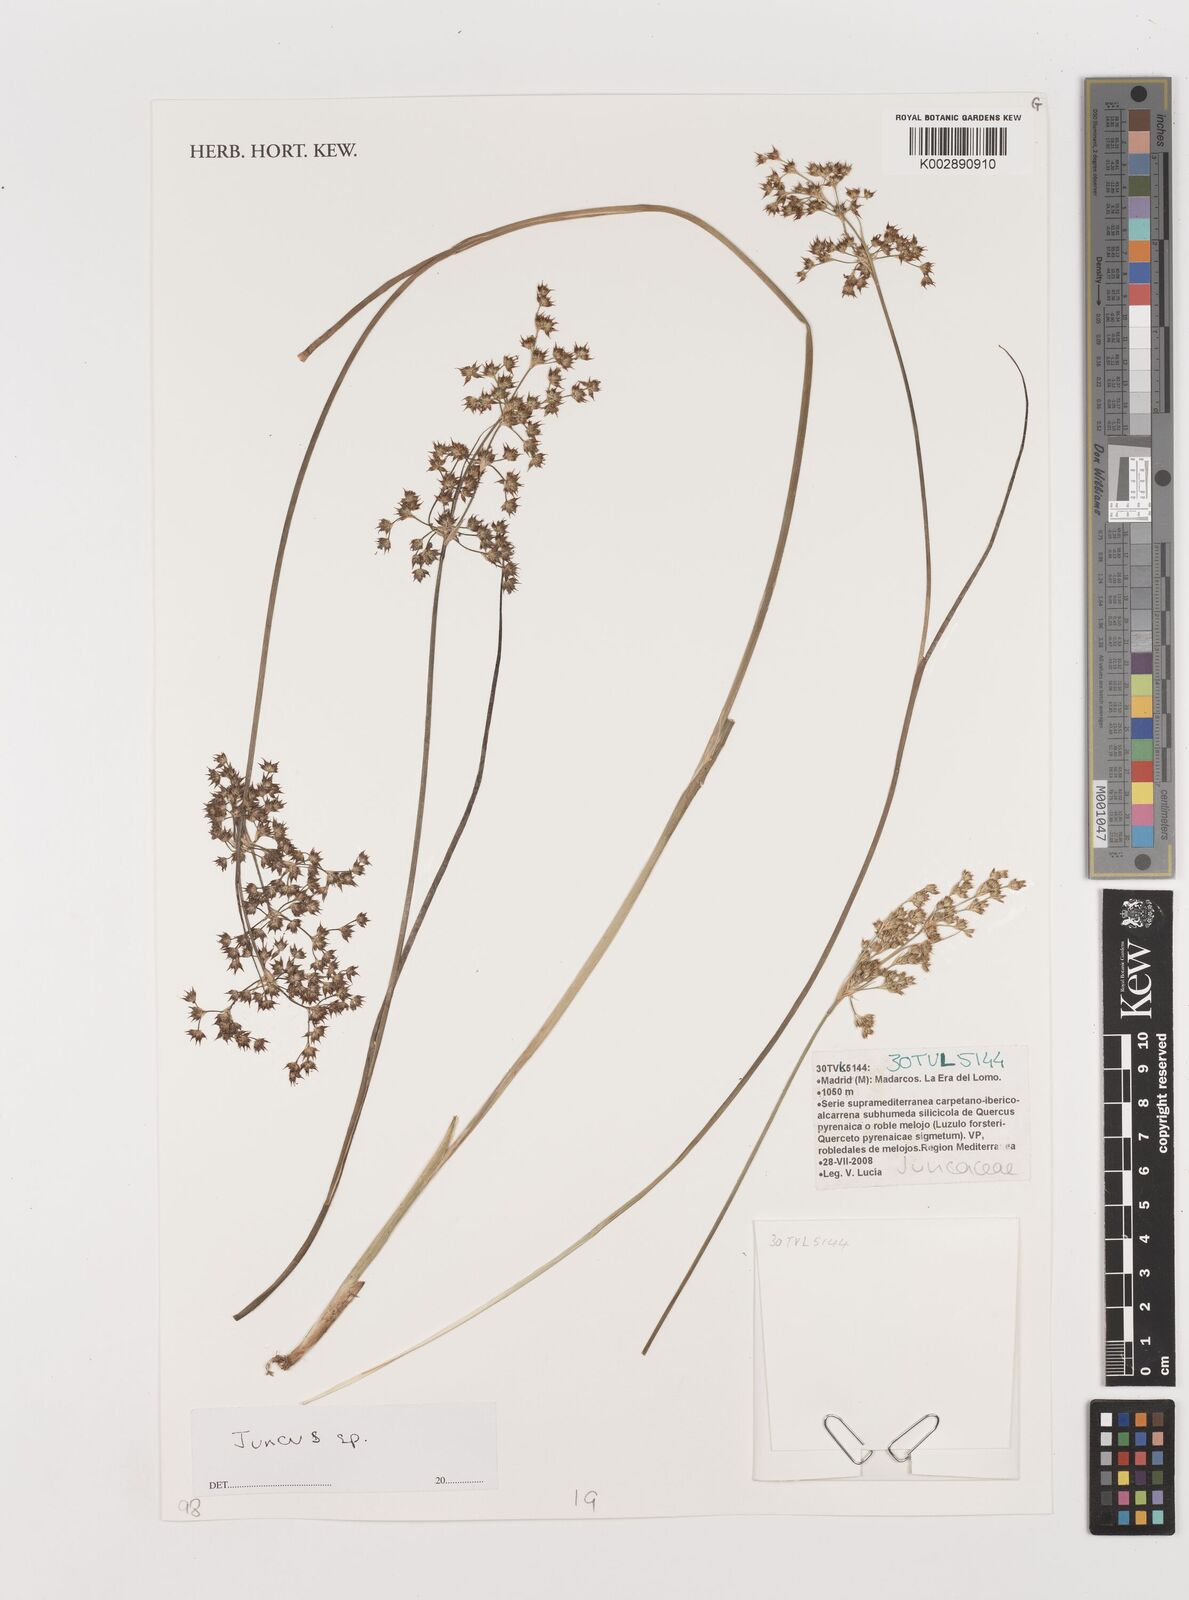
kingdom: Plantae
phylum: Tracheophyta
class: Liliopsida
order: Poales
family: Juncaceae
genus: Juncus
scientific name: Juncus
